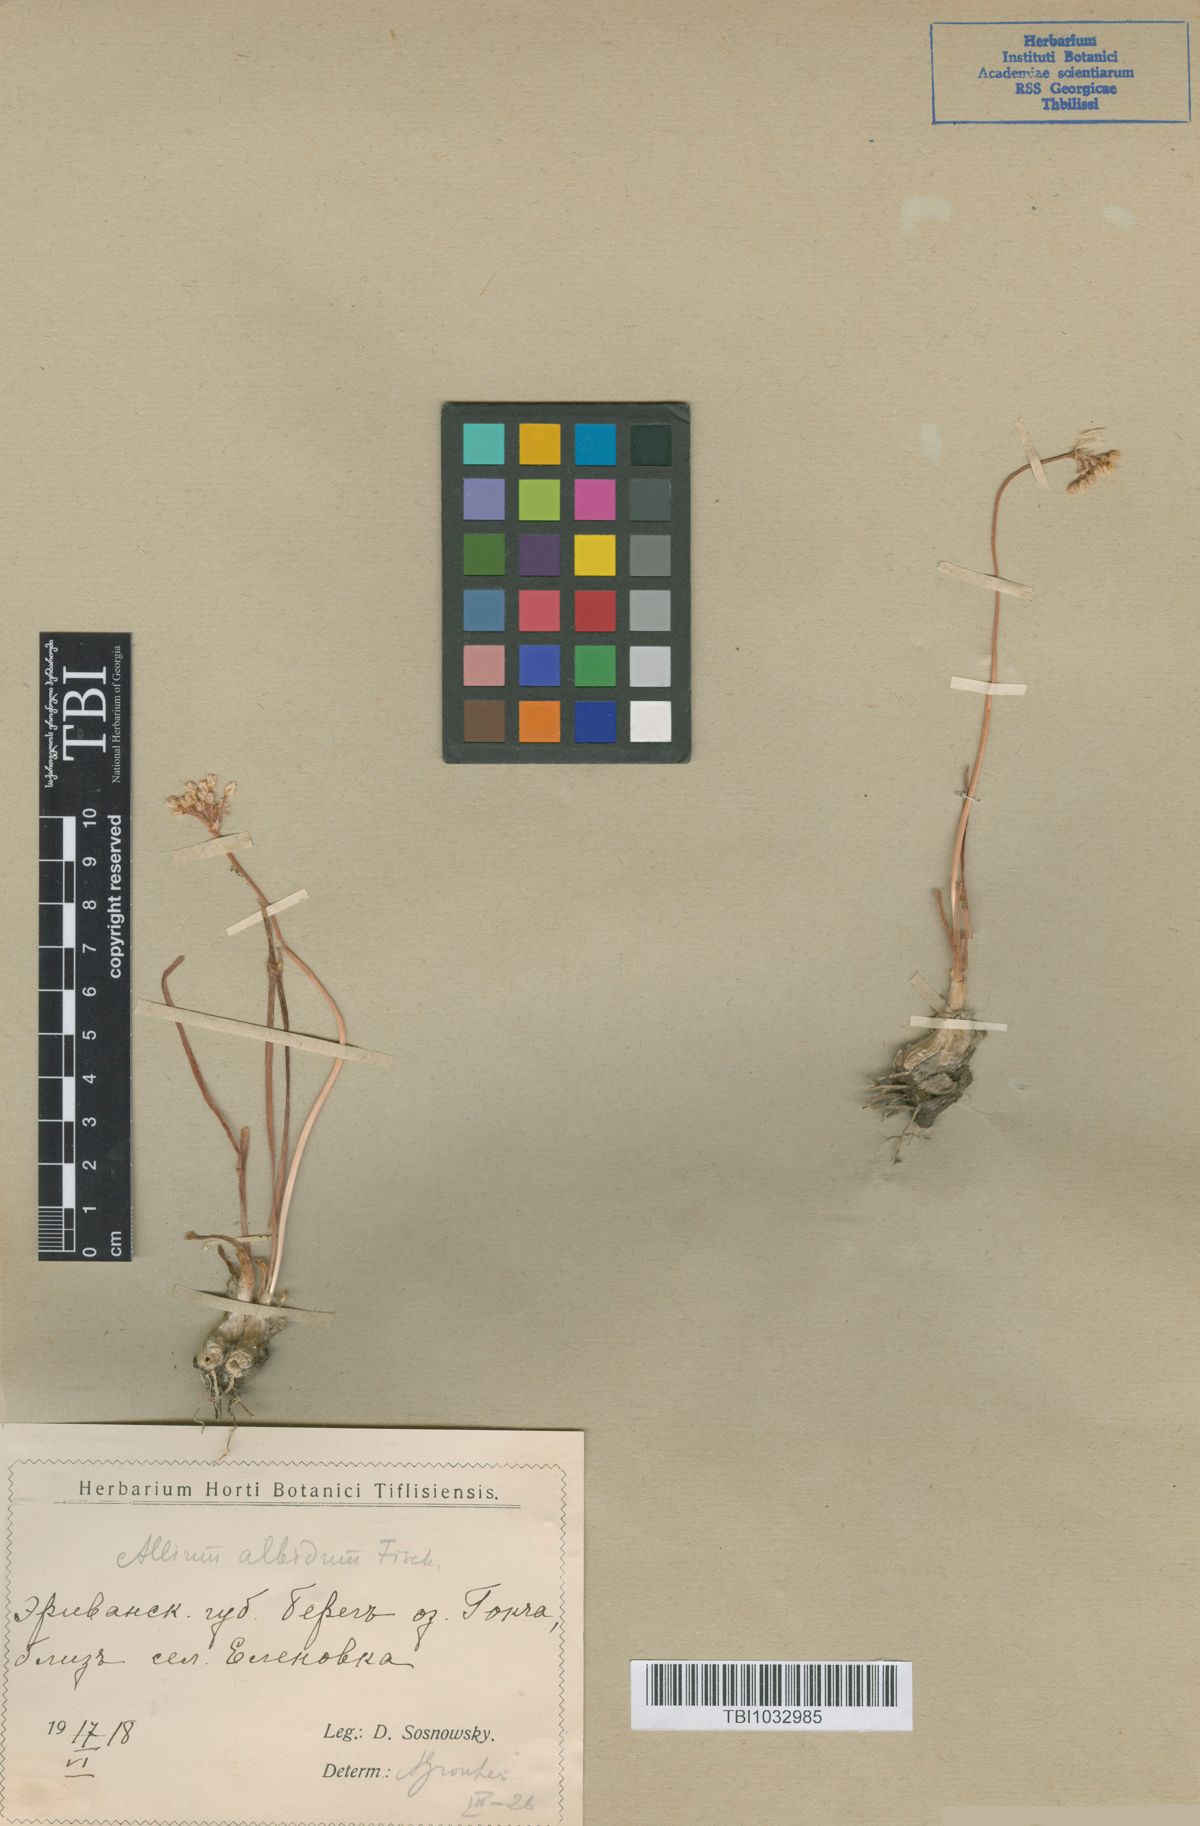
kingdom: Plantae
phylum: Tracheophyta
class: Liliopsida
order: Asparagales
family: Amaryllidaceae
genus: Allium
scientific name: Allium denudatum
